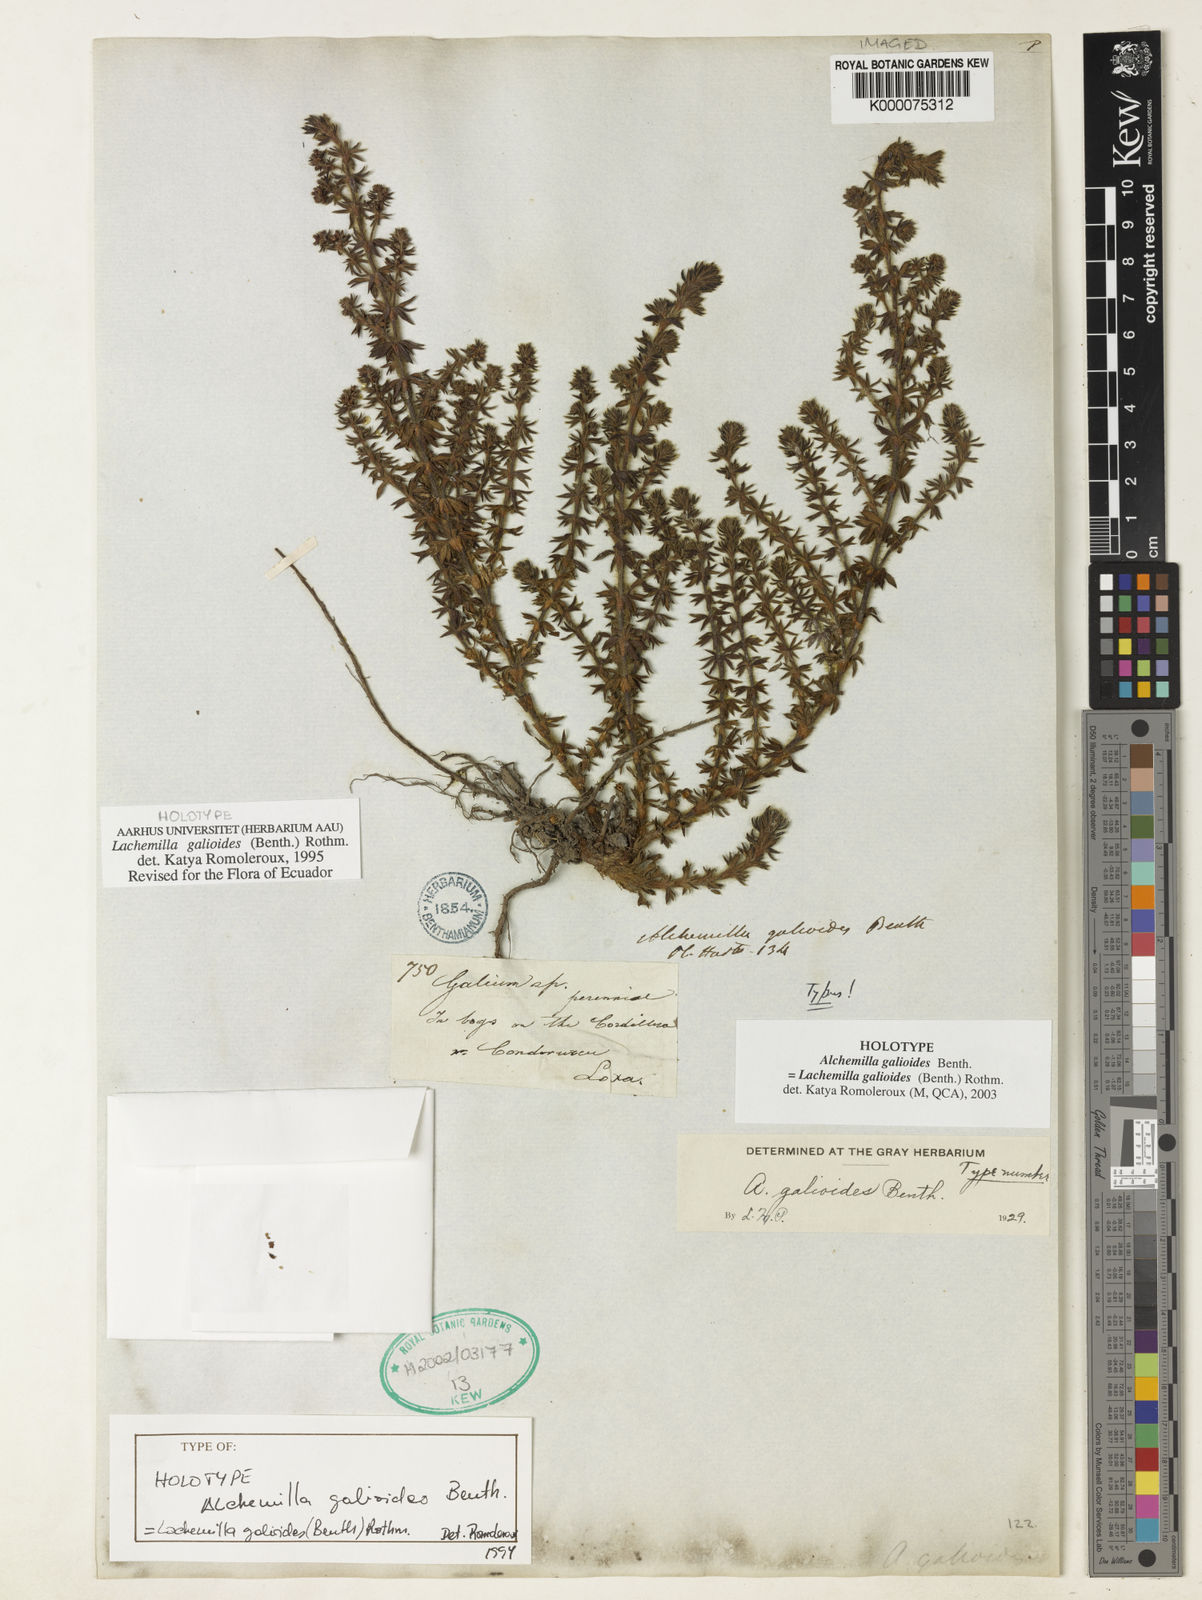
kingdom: Plantae
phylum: Tracheophyta
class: Magnoliopsida
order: Rosales
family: Rosaceae
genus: Lachemilla
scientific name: Lachemilla galioides
